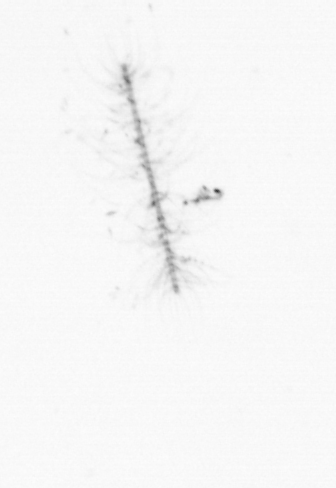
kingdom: Chromista
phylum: Ochrophyta
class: Bacillariophyceae
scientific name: Bacillariophyceae
